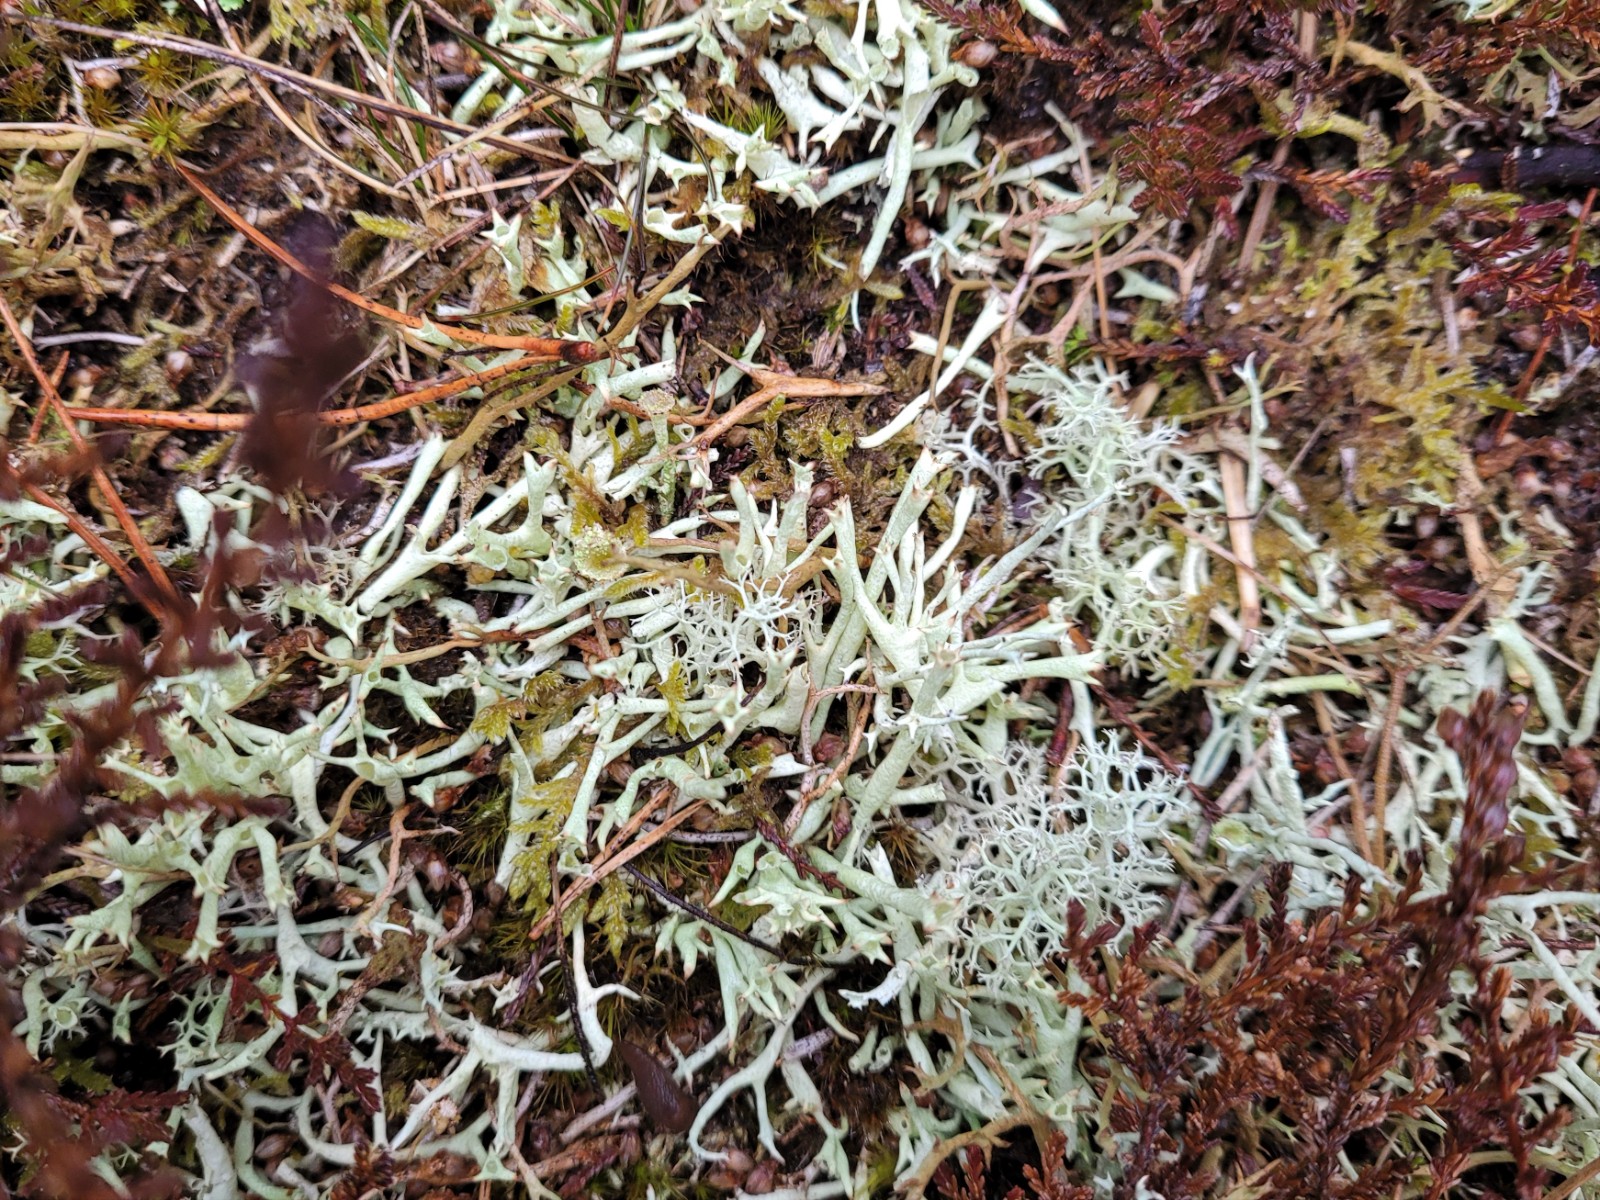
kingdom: Fungi
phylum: Ascomycota
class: Lecanoromycetes
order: Lecanorales
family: Cladoniaceae
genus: Cladonia
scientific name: Cladonia uncialis
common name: pigget bægerlav
